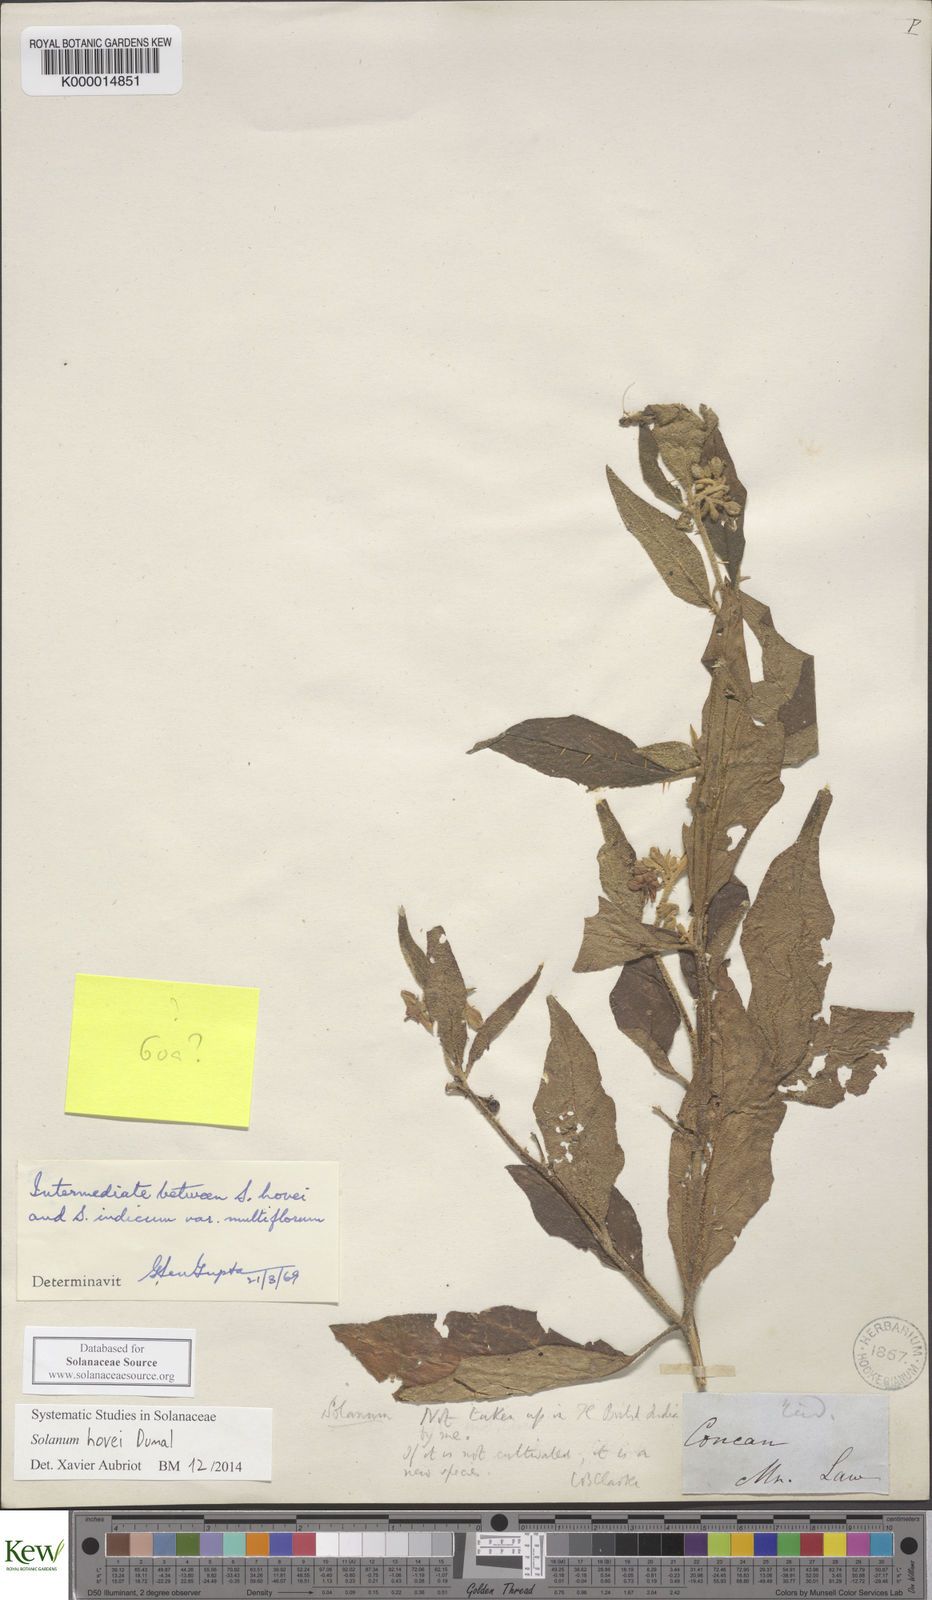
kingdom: Plantae
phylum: Tracheophyta
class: Magnoliopsida
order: Solanales
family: Solanaceae
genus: Solanum
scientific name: Solanum hovei
